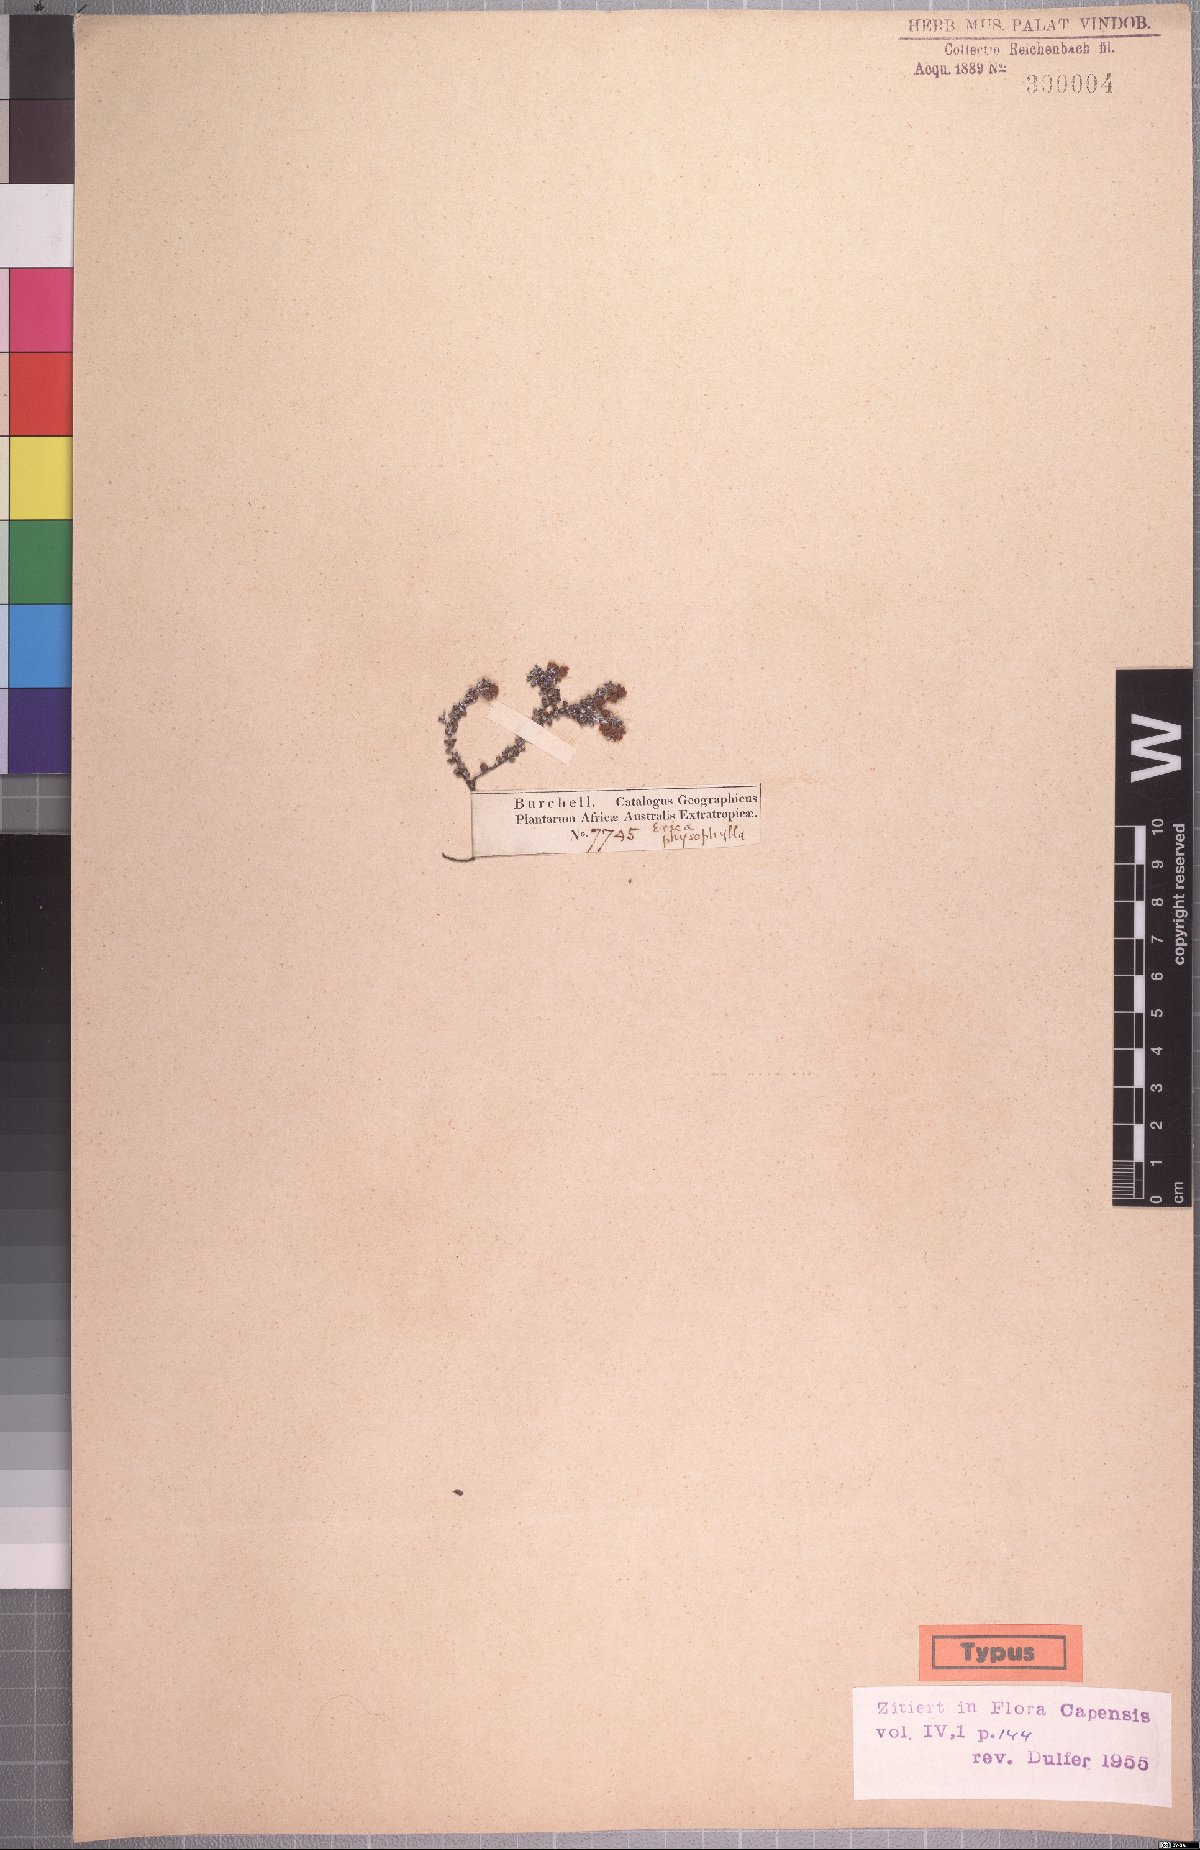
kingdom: Plantae
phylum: Tracheophyta
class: Magnoliopsida
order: Ericales
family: Ericaceae
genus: Erica
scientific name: Erica physophylla
